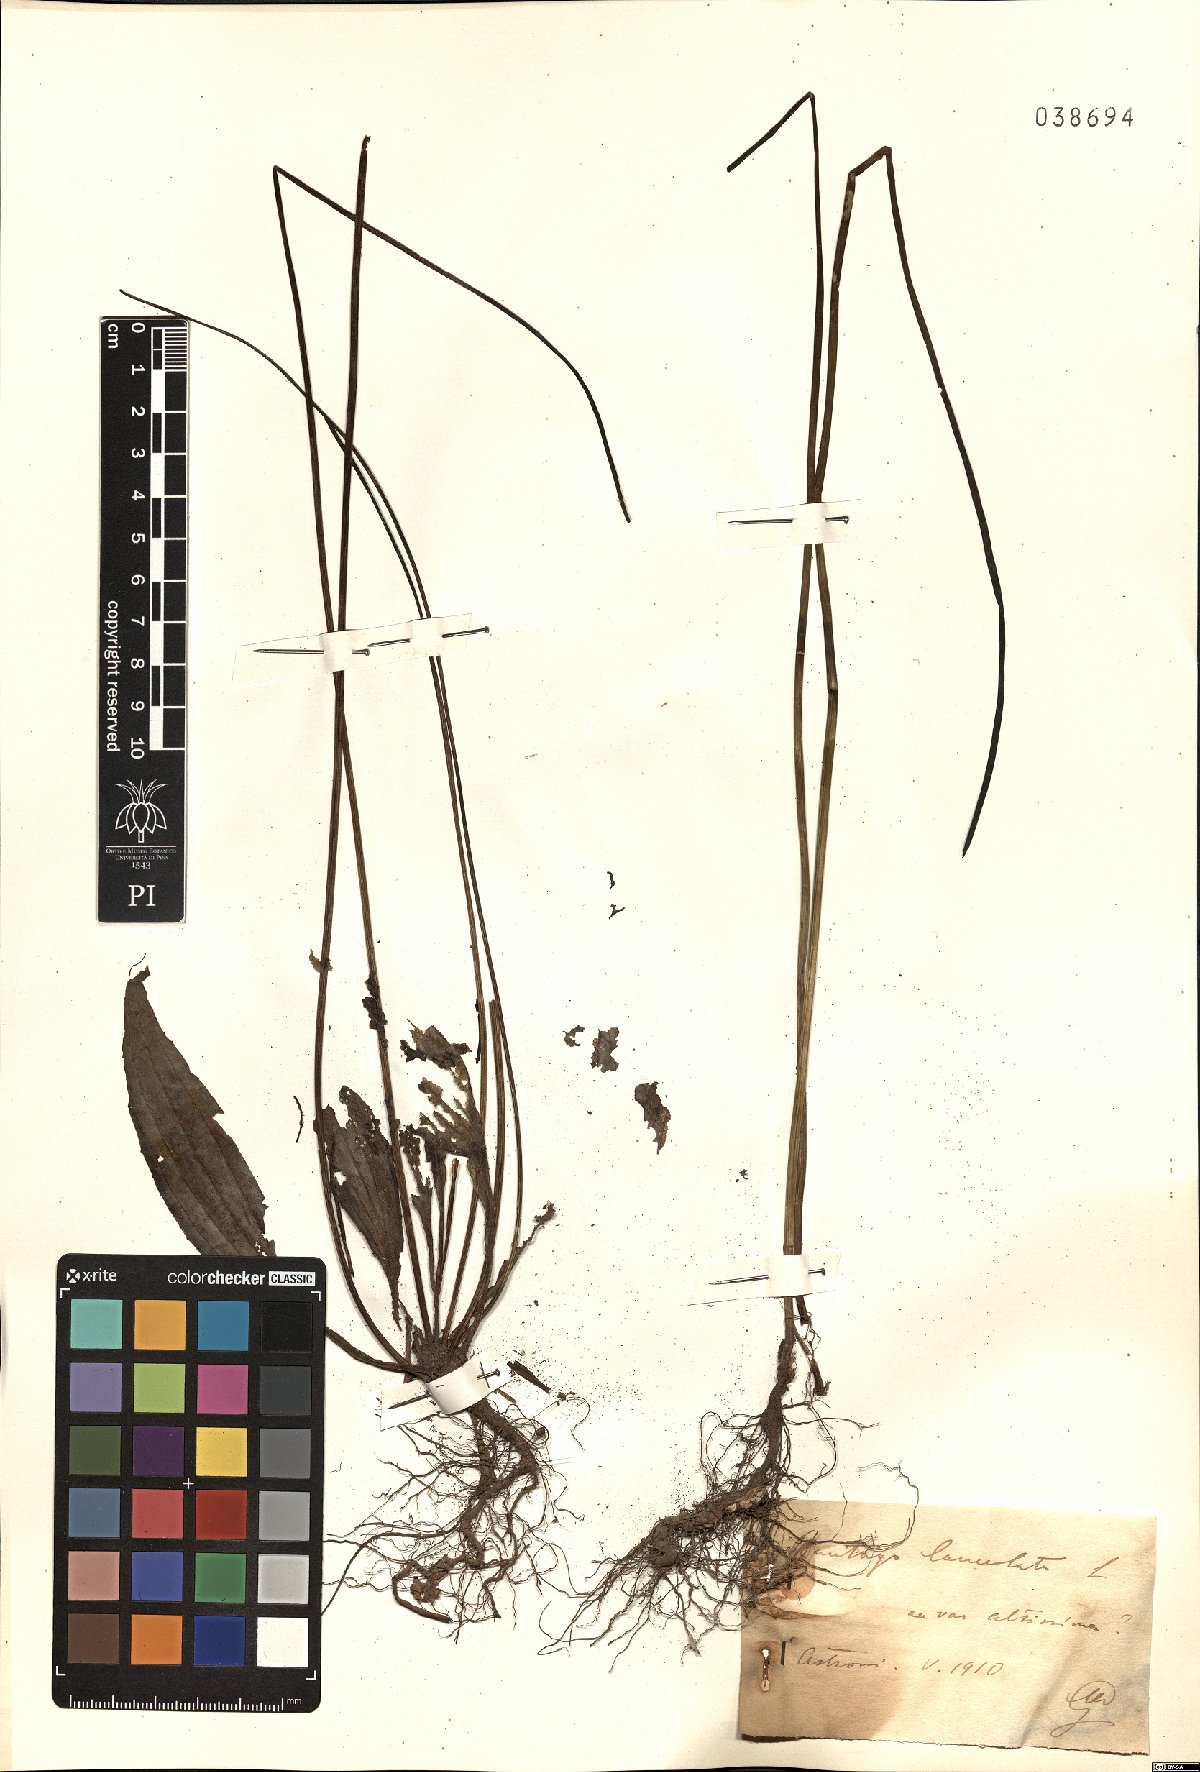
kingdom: Plantae
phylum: Tracheophyta
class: Magnoliopsida
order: Lamiales
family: Plantaginaceae
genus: Plantago
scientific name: Plantago altissima
